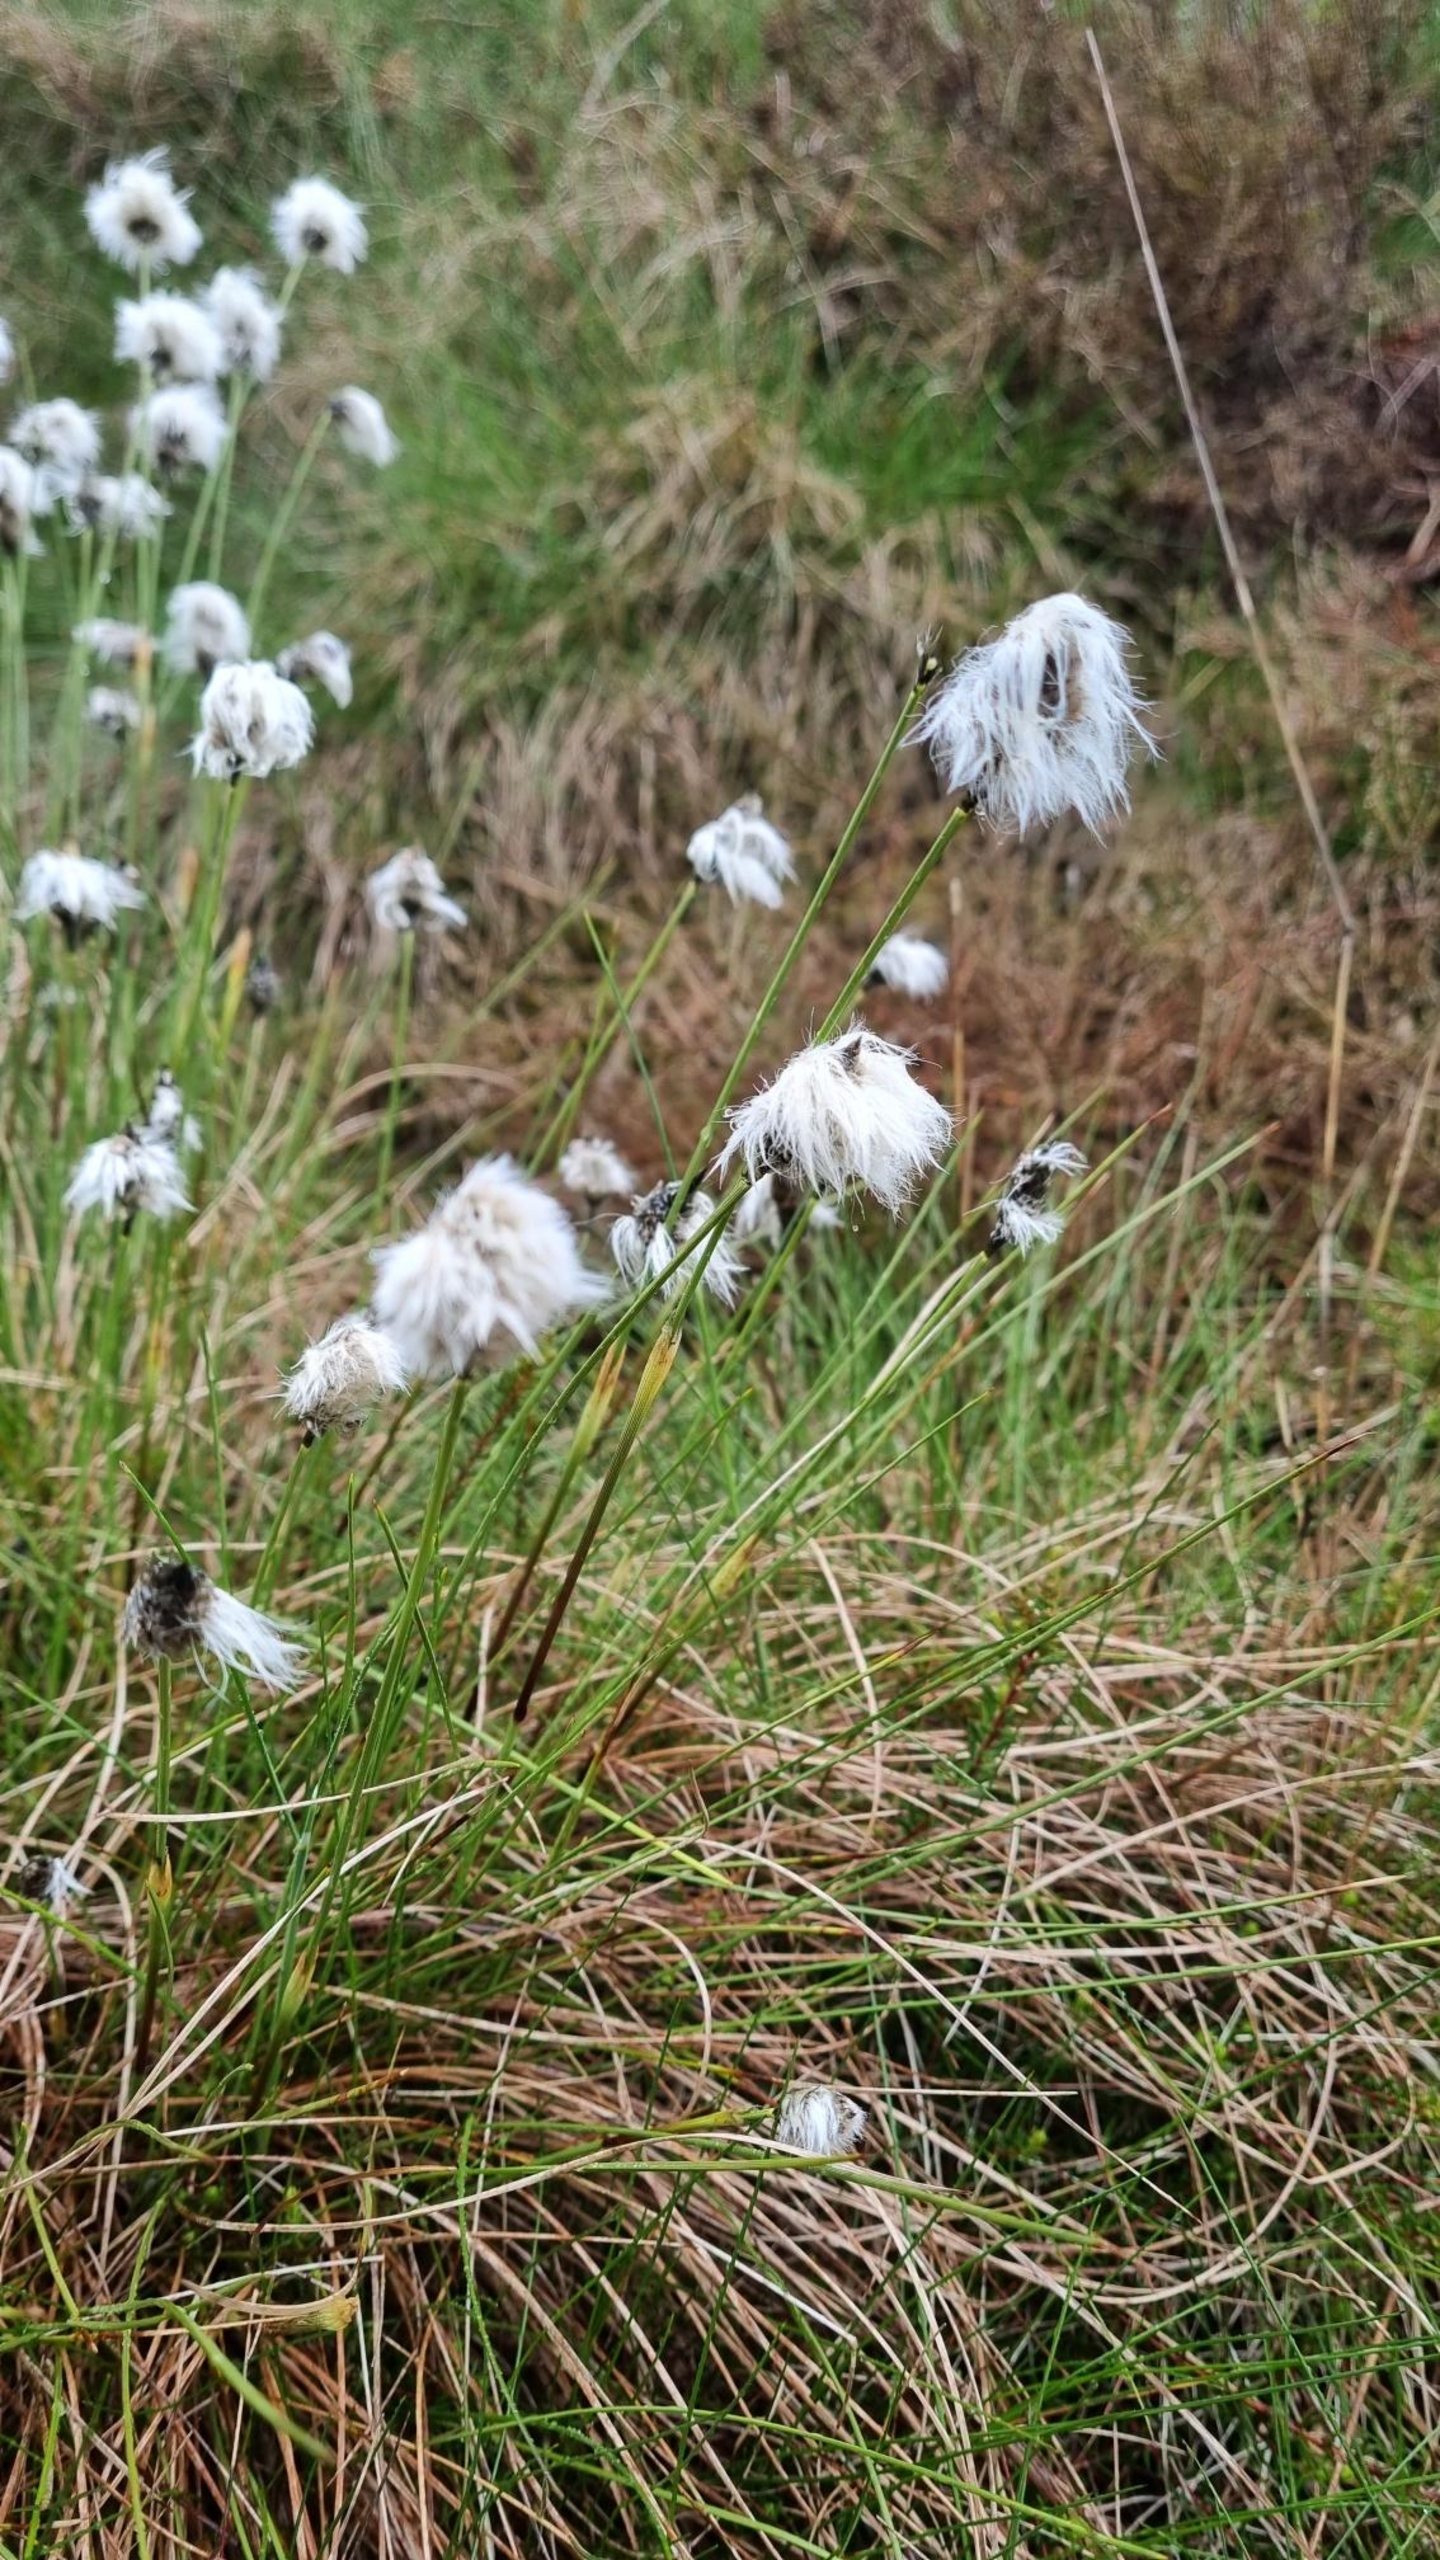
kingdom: Plantae
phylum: Tracheophyta
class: Liliopsida
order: Poales
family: Cyperaceae
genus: Eriophorum
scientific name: Eriophorum vaginatum
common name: Tue-kæruld
